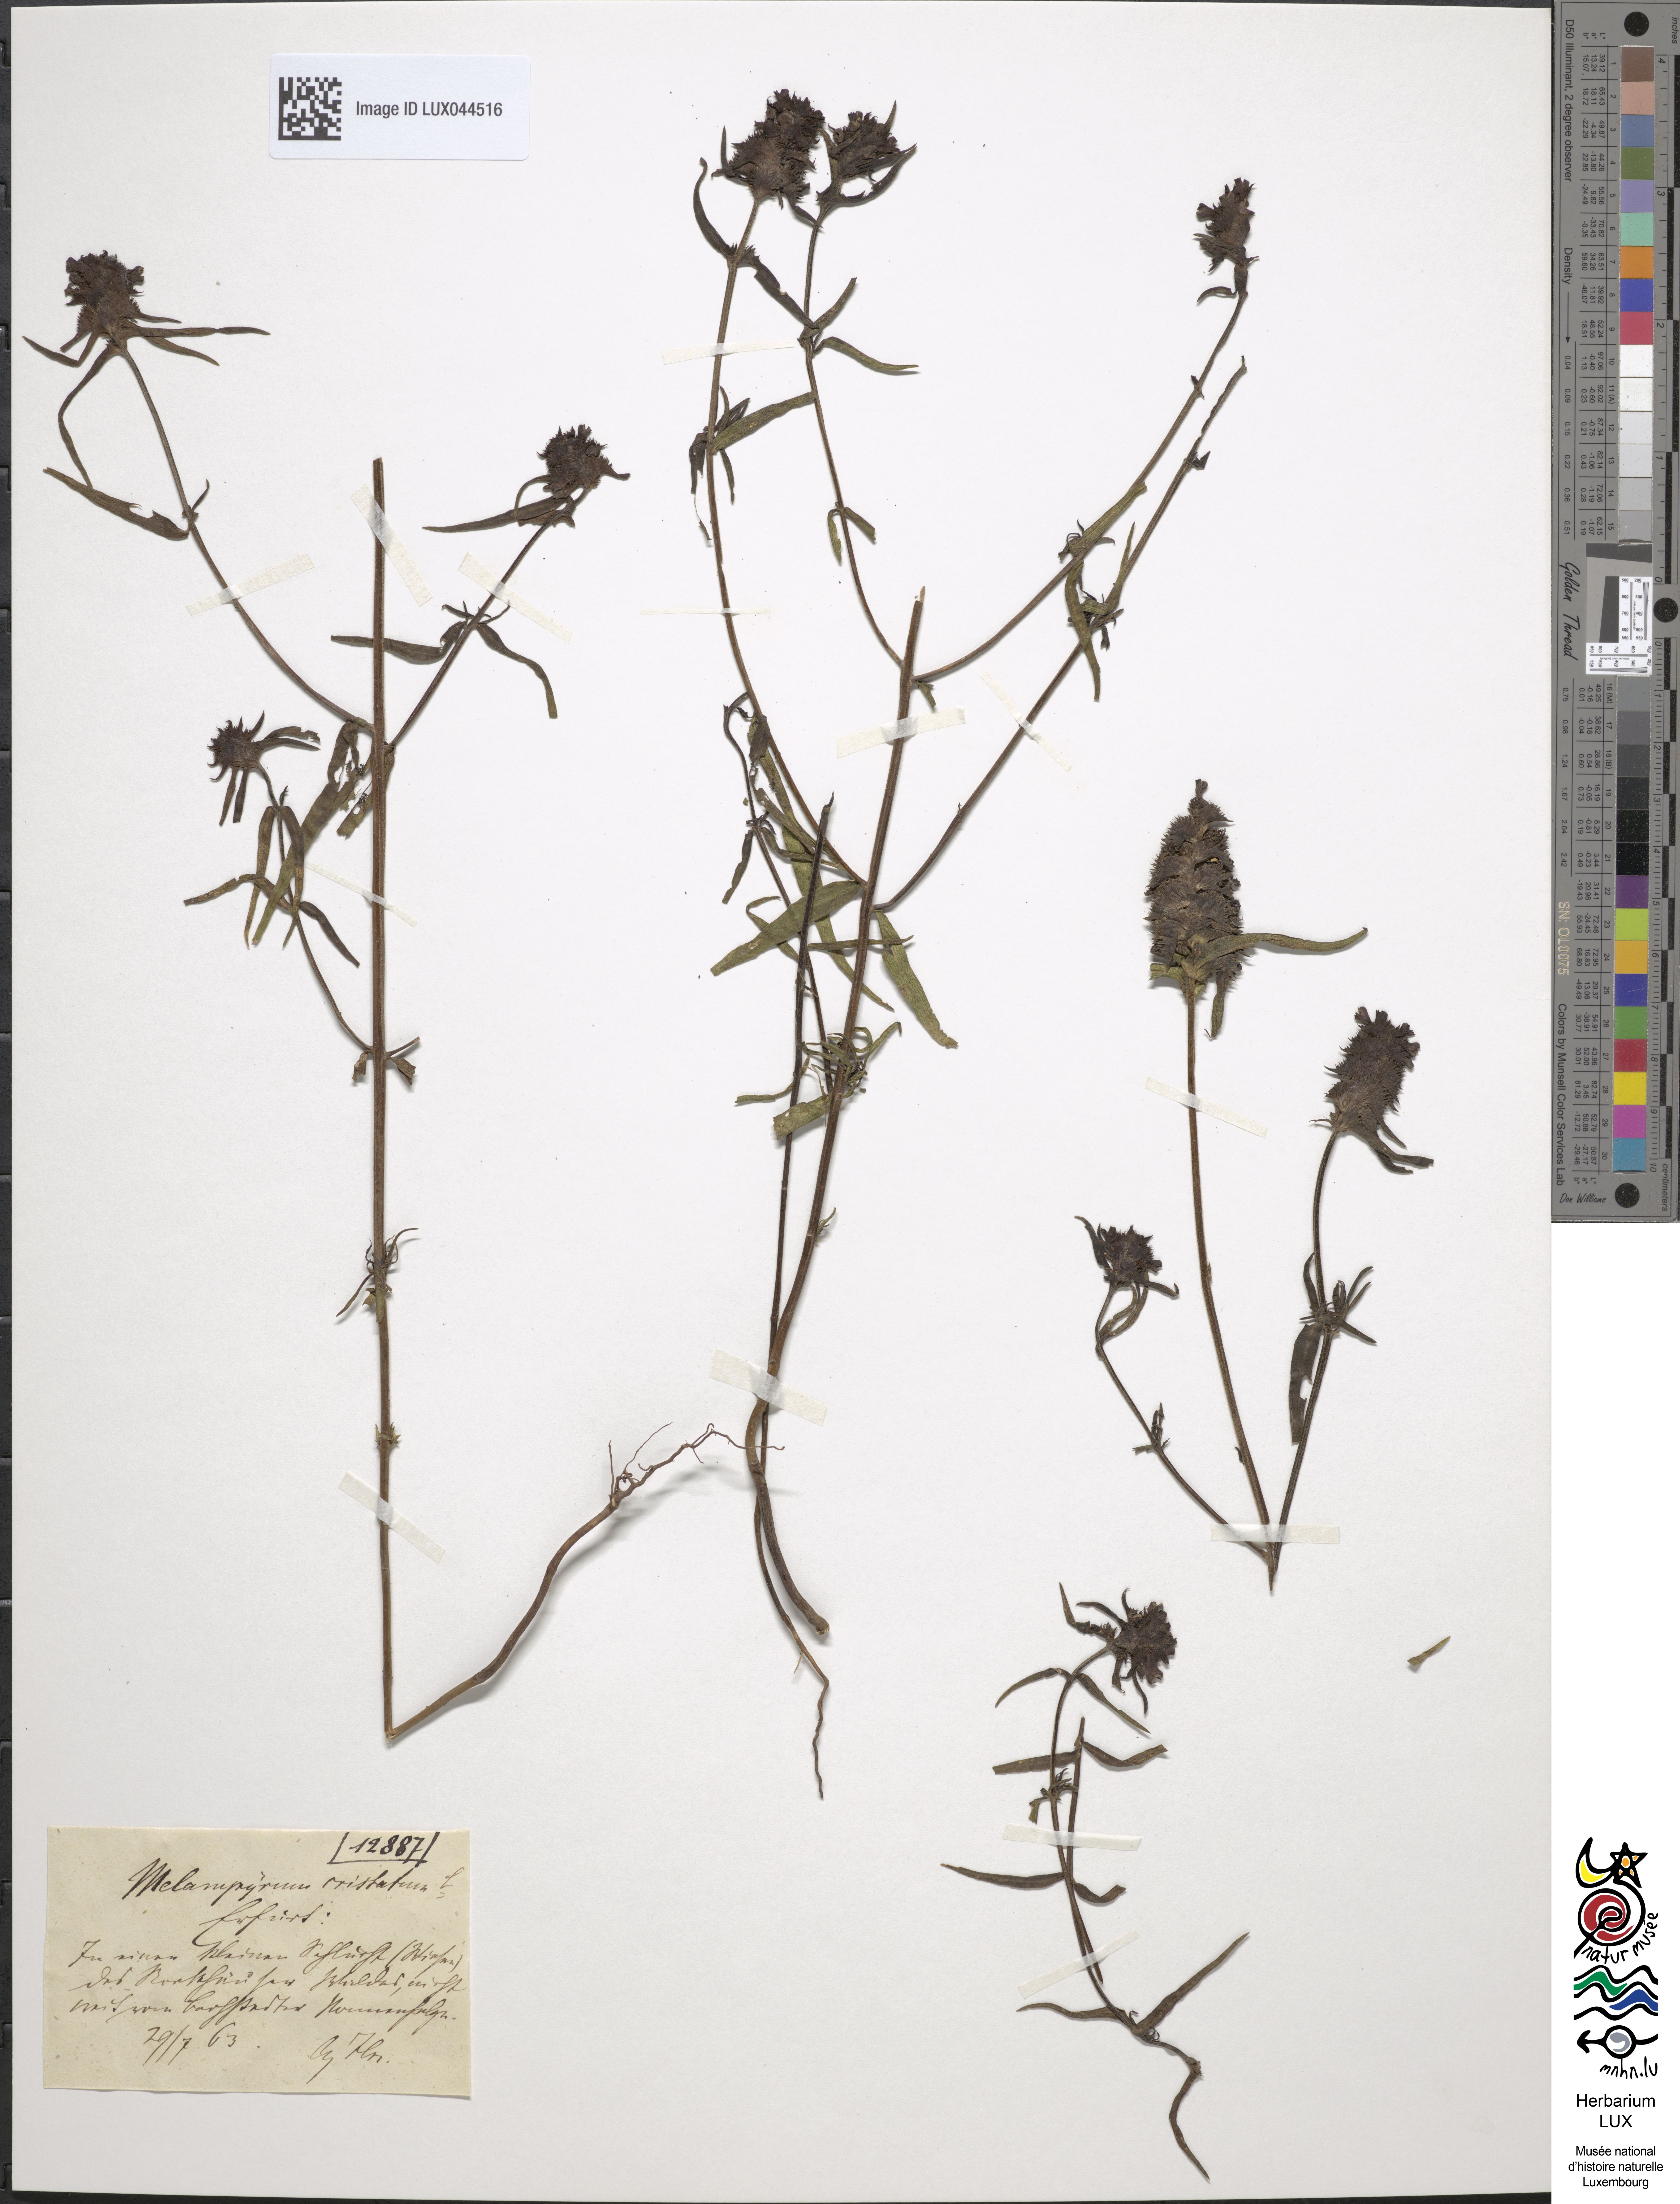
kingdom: Plantae
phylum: Tracheophyta
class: Magnoliopsida
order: Lamiales
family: Orobanchaceae
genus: Melampyrum
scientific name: Melampyrum cristatum
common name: Crested cow-wheat
